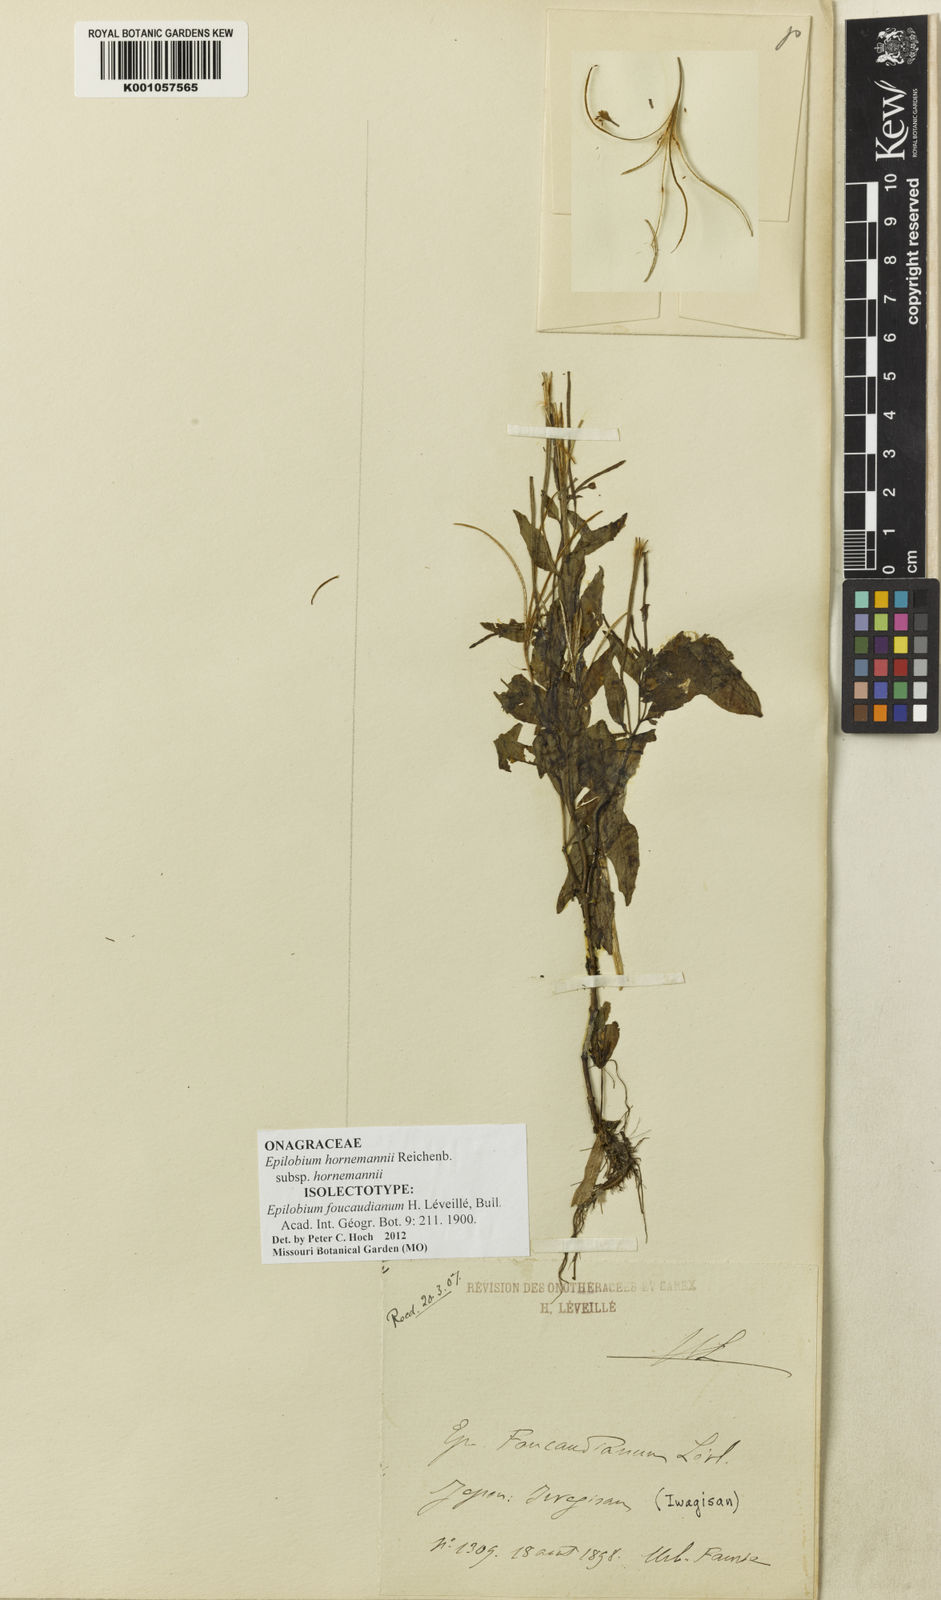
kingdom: Plantae
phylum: Tracheophyta
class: Magnoliopsida
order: Myrtales
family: Onagraceae
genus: Epilobium
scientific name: Epilobium hornemannii
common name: Hornemann's willowherb
